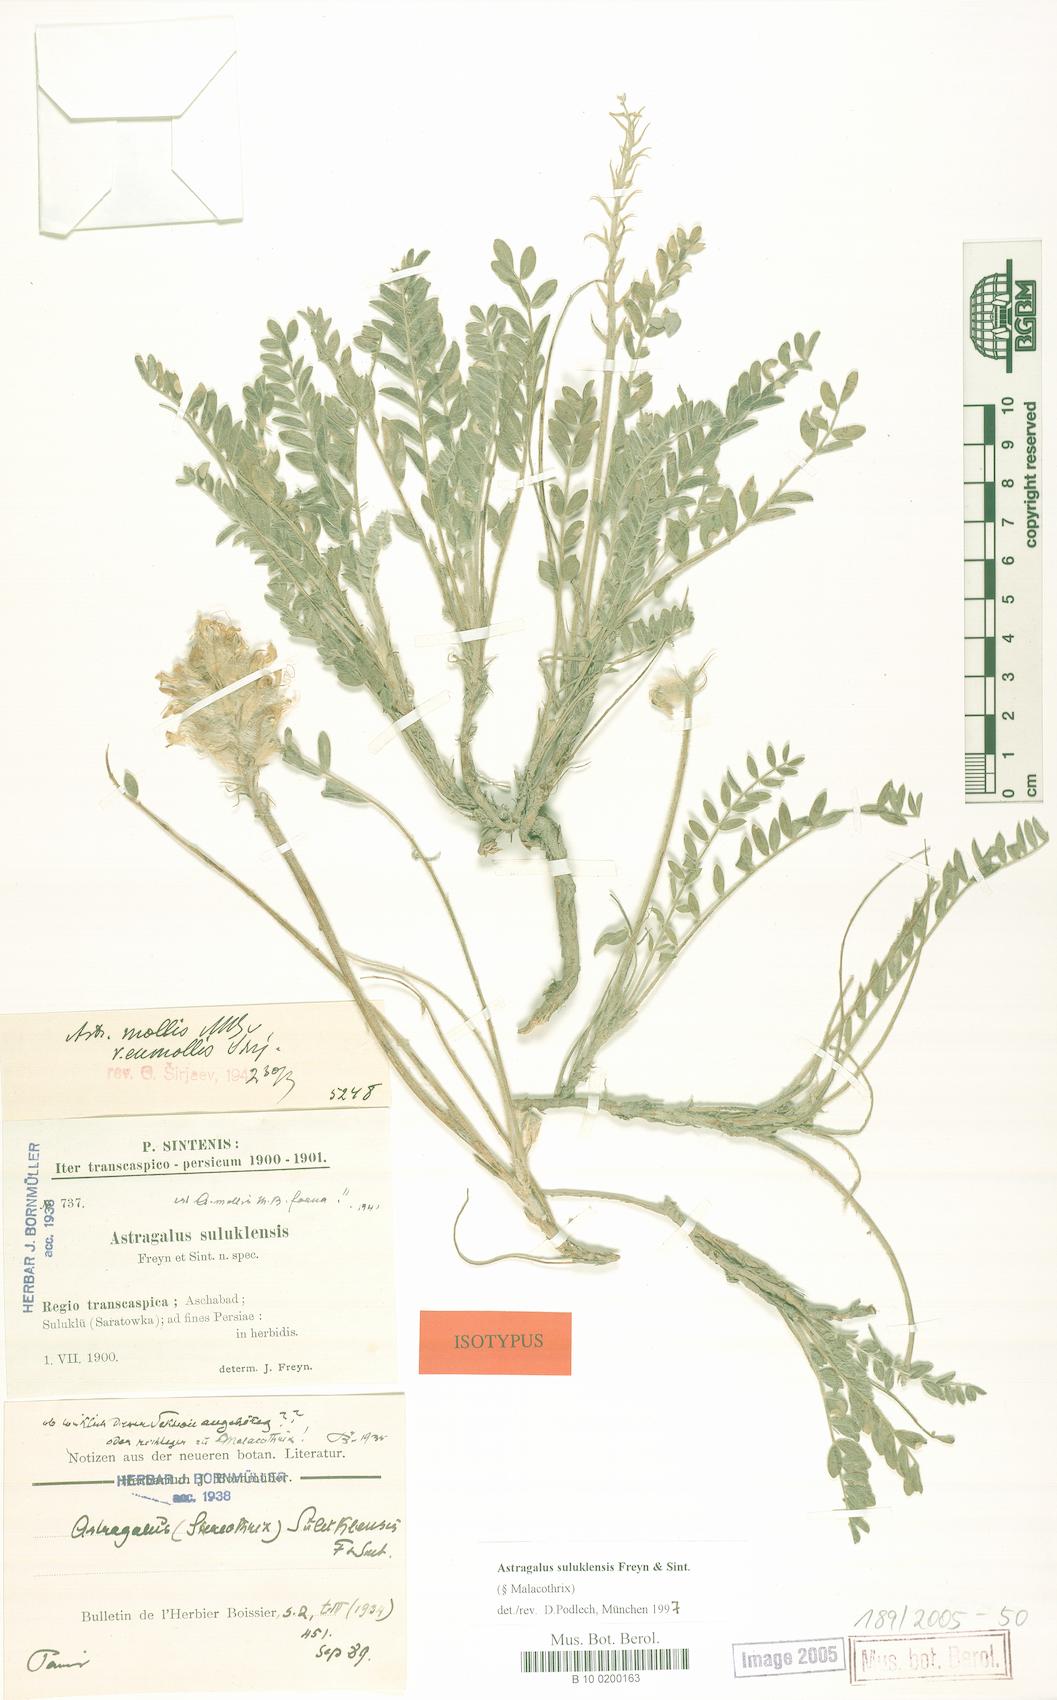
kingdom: Plantae
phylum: Tracheophyta
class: Magnoliopsida
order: Fabales
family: Fabaceae
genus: Astragalus
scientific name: Astragalus suluklensis
